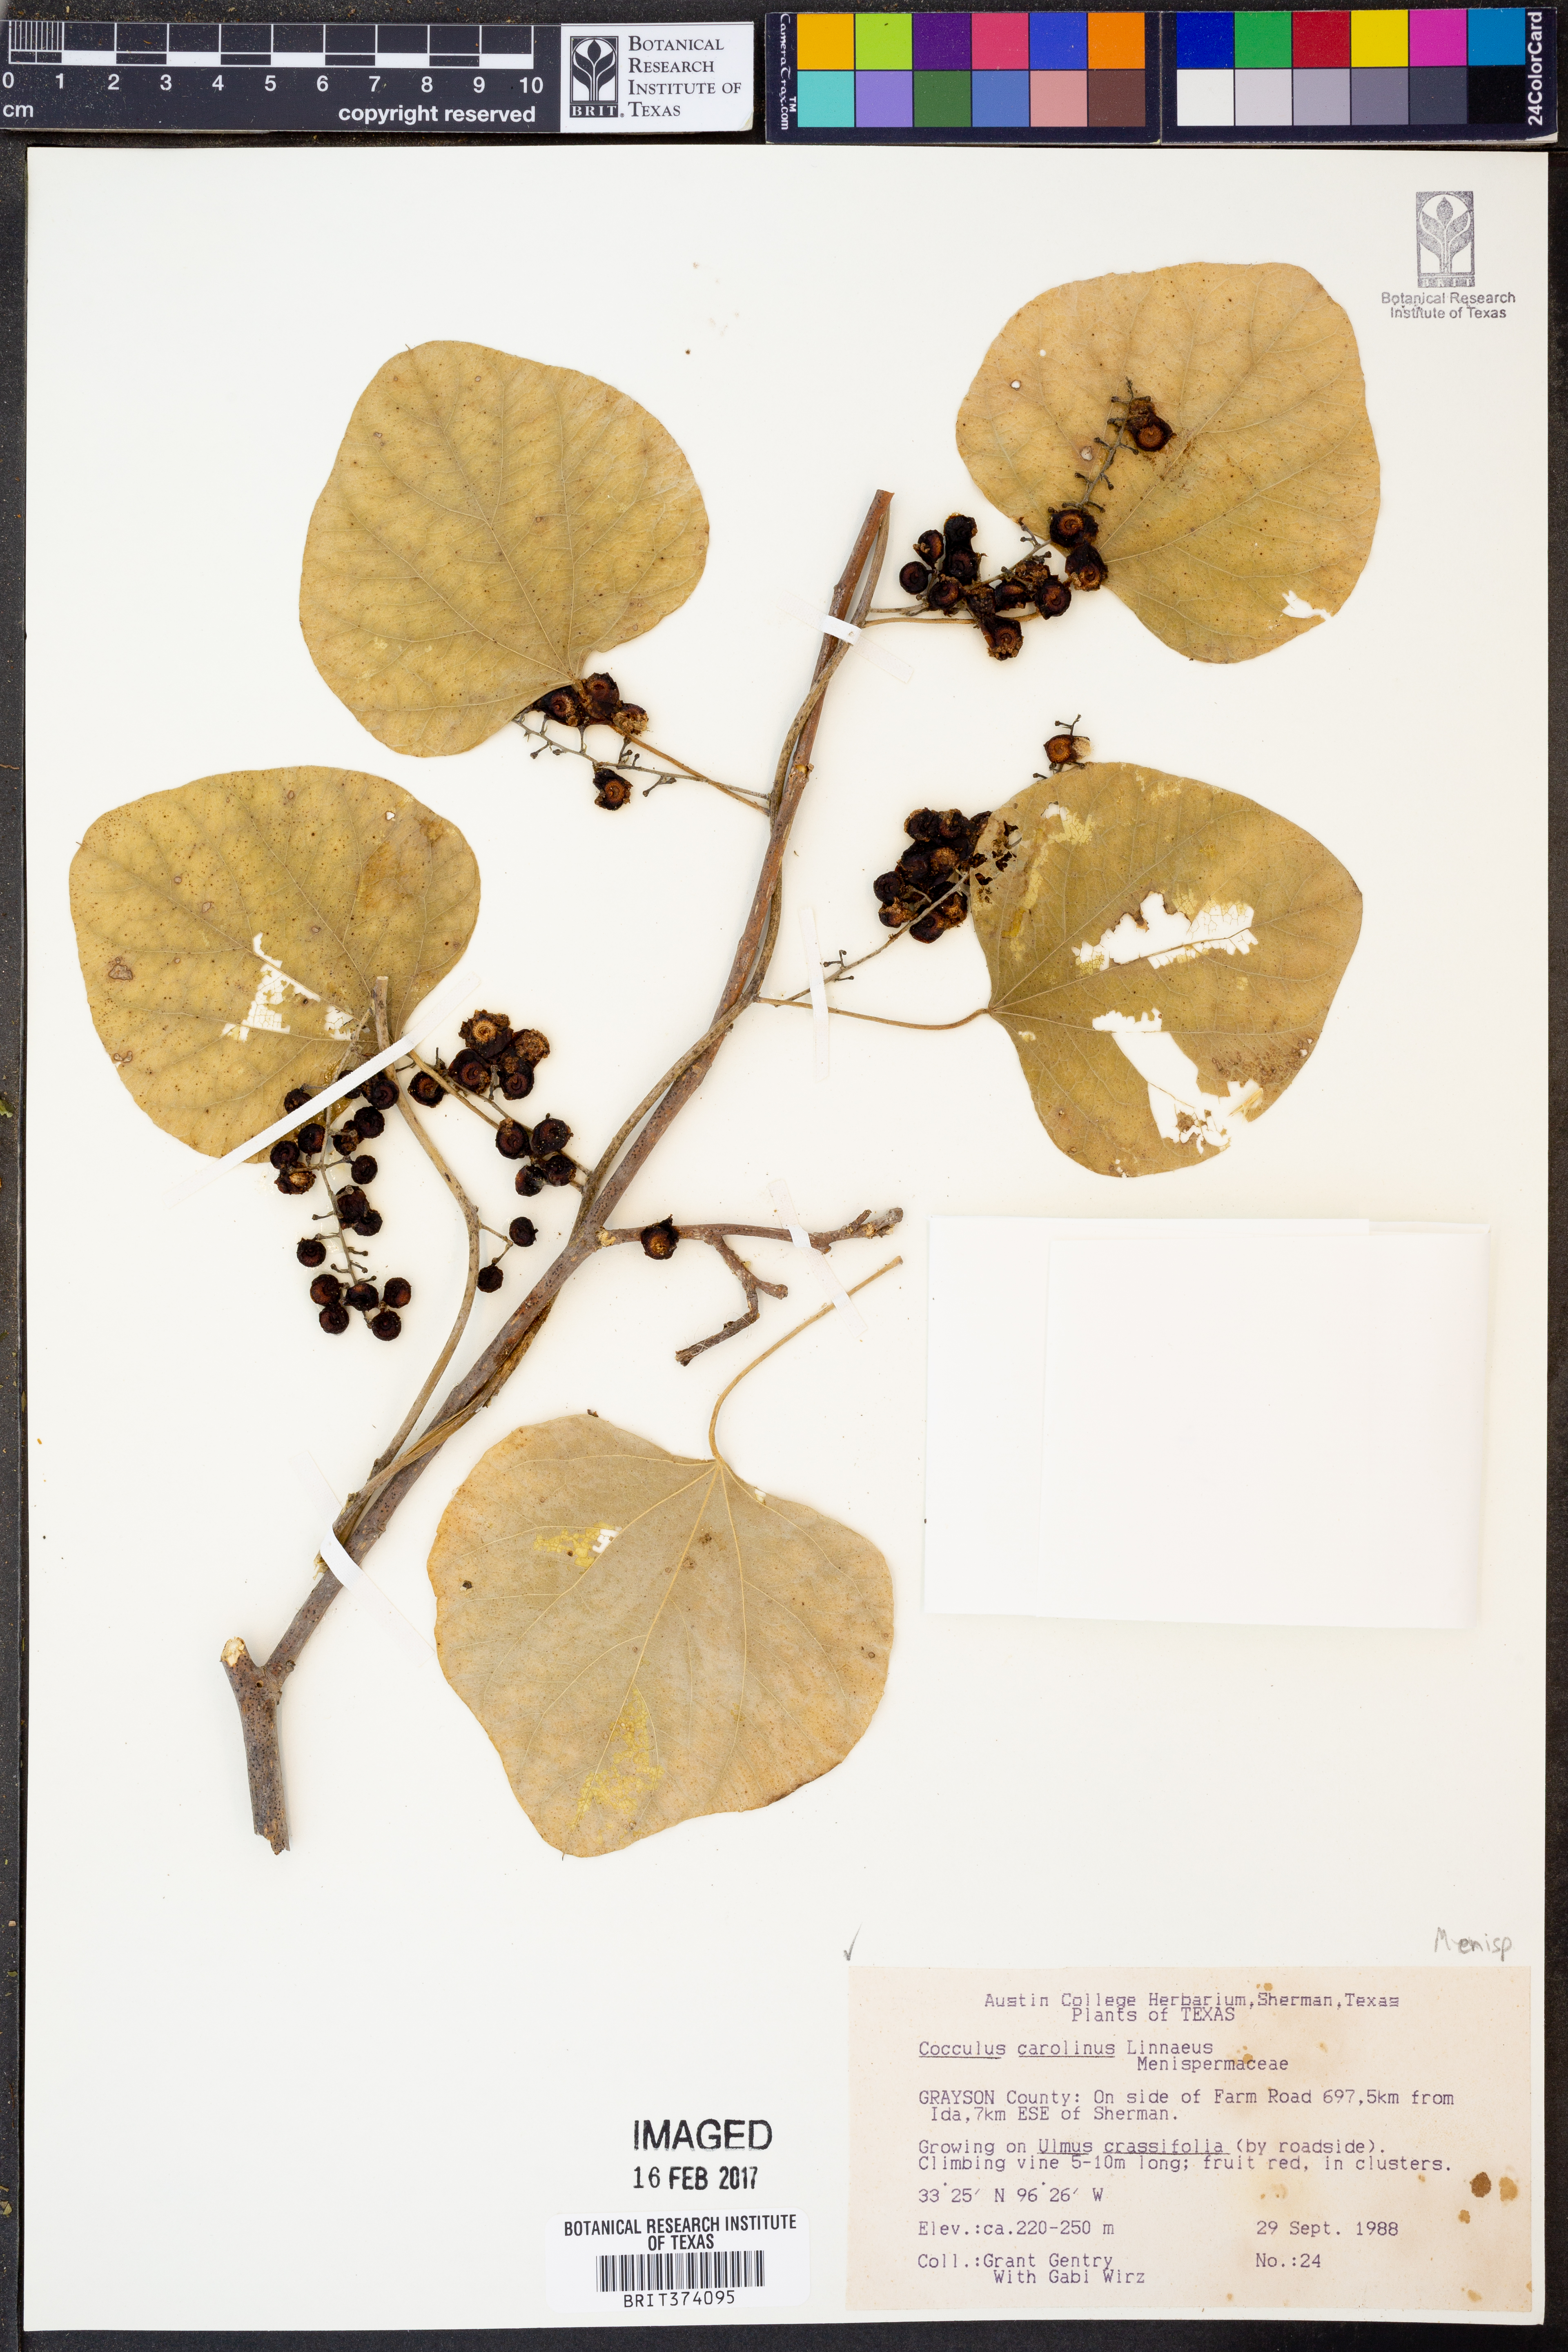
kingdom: Plantae
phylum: Tracheophyta
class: Magnoliopsida
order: Ranunculales
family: Menispermaceae
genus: Cocculus
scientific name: Cocculus carolinus
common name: Carolina moonseed
